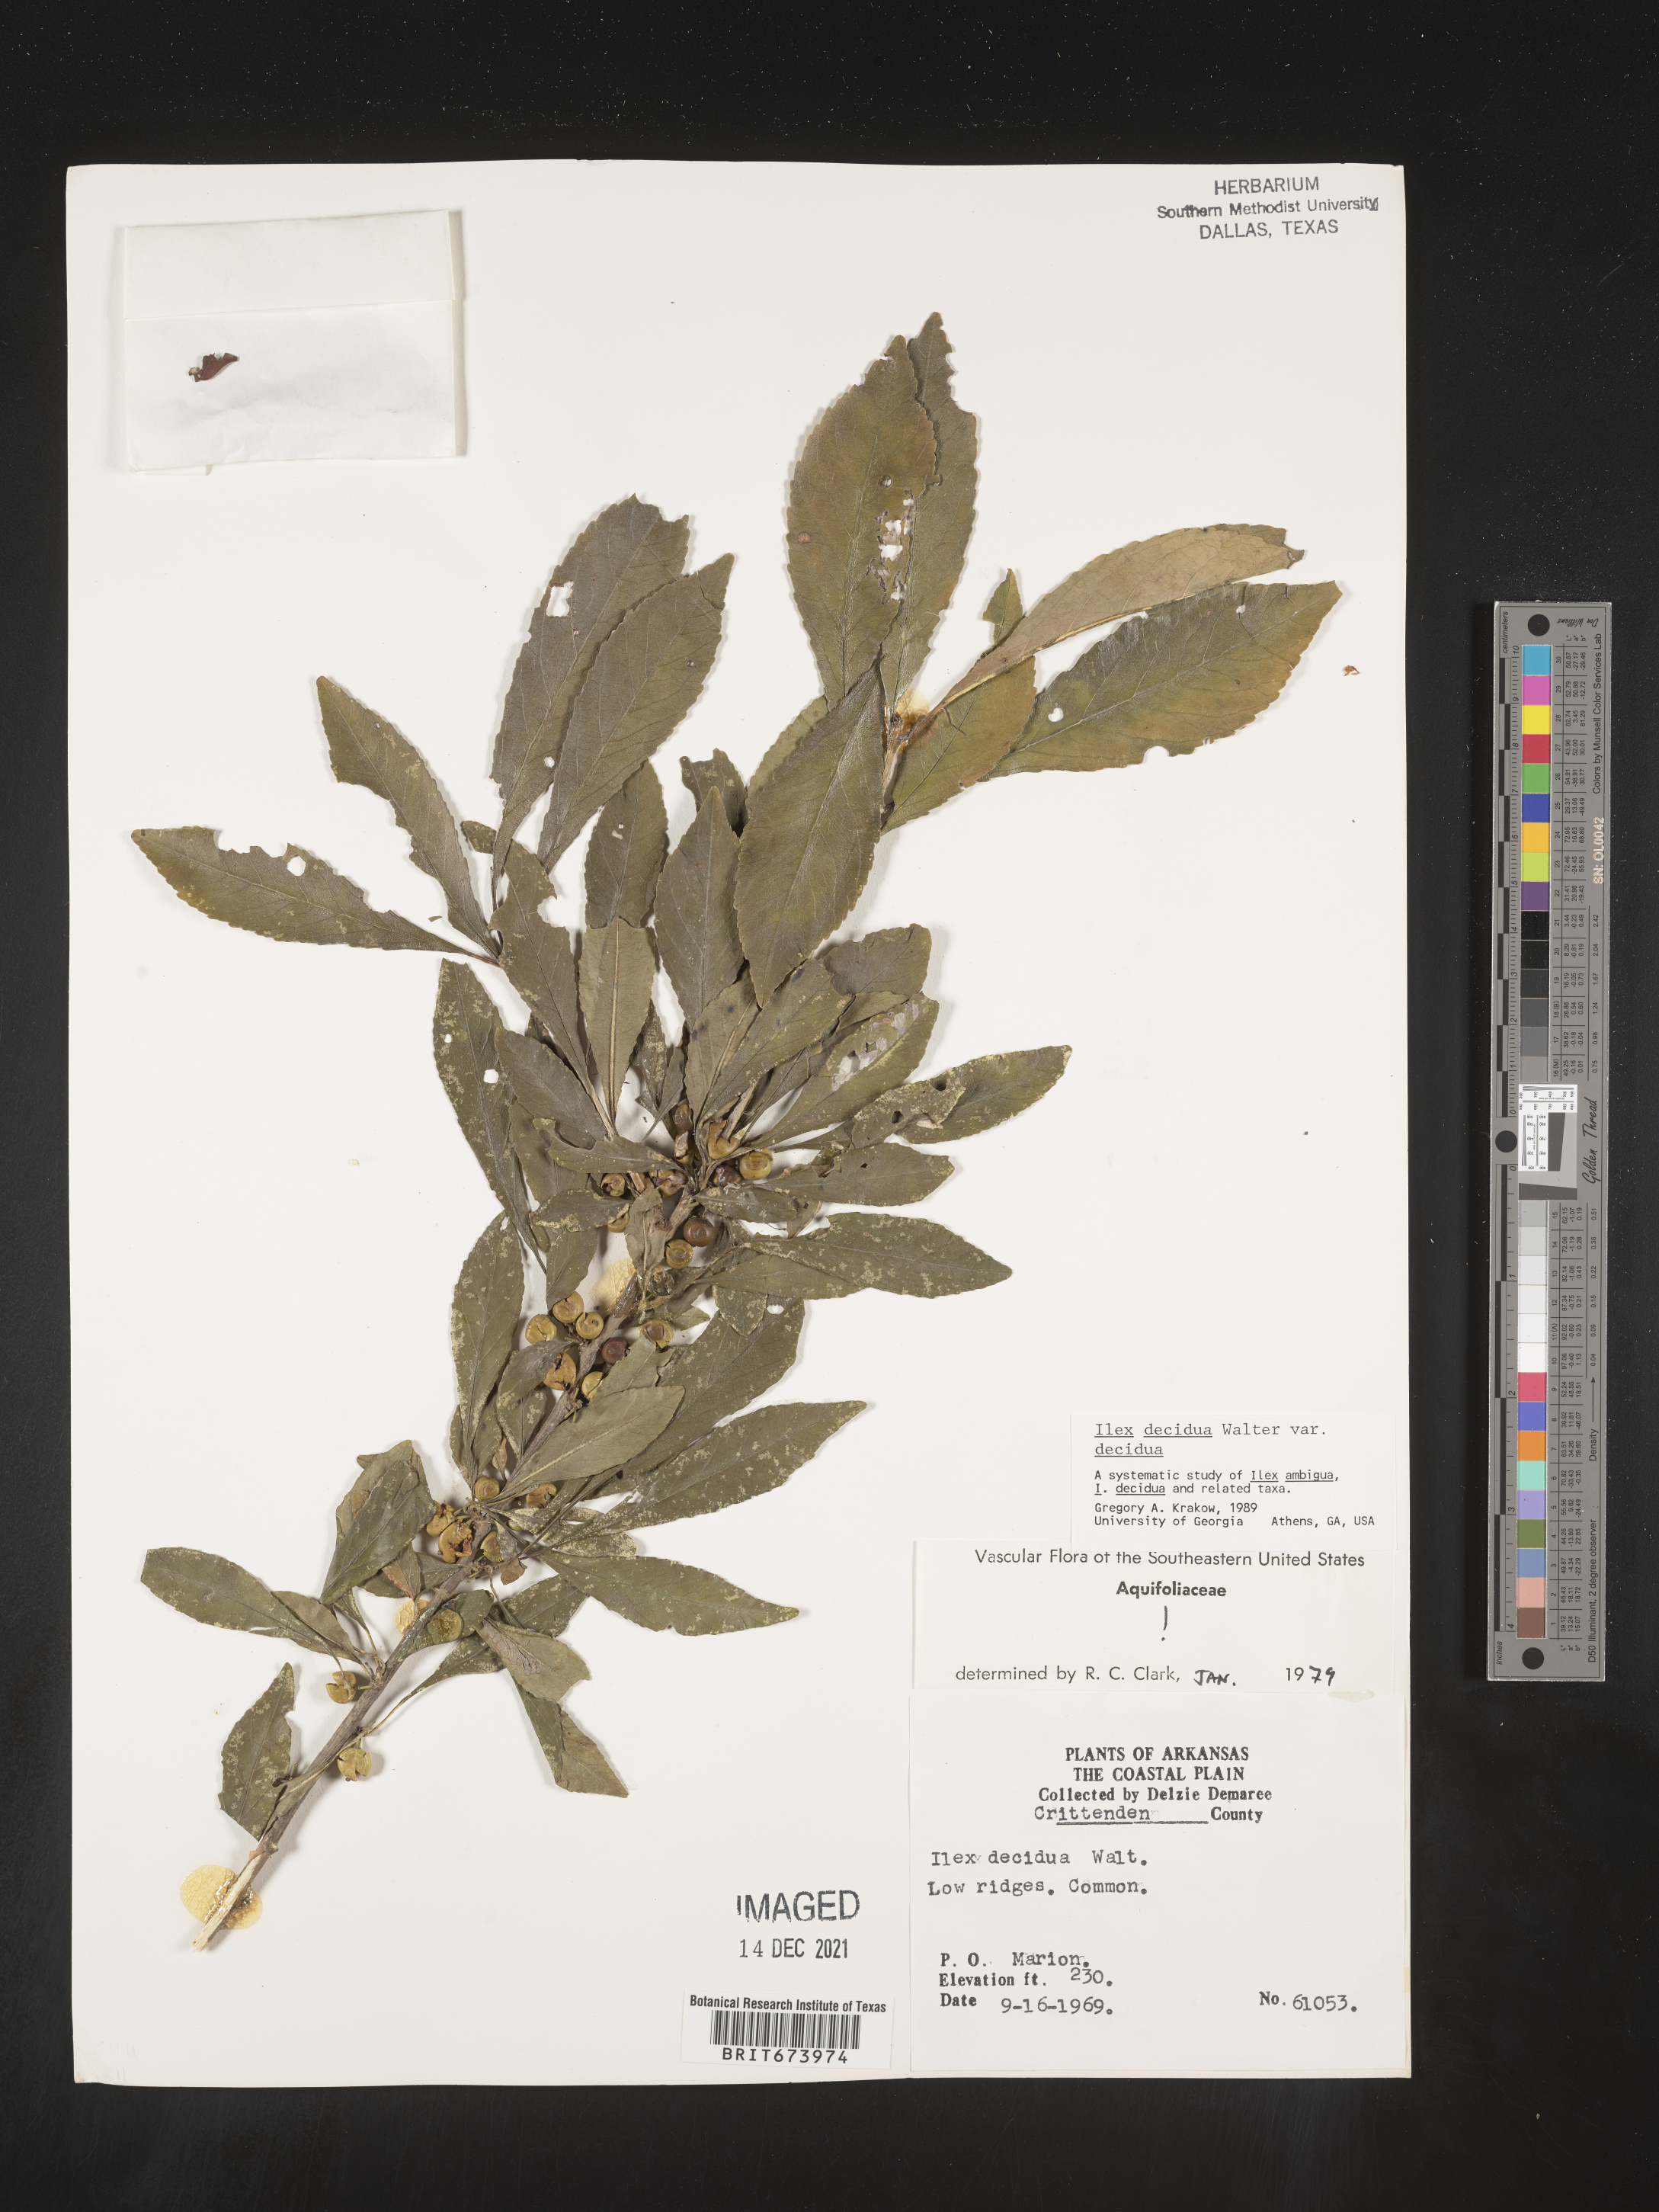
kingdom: Plantae
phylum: Tracheophyta
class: Magnoliopsida
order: Aquifoliales
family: Aquifoliaceae
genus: Ilex
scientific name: Ilex decidua
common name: Possum-haw
